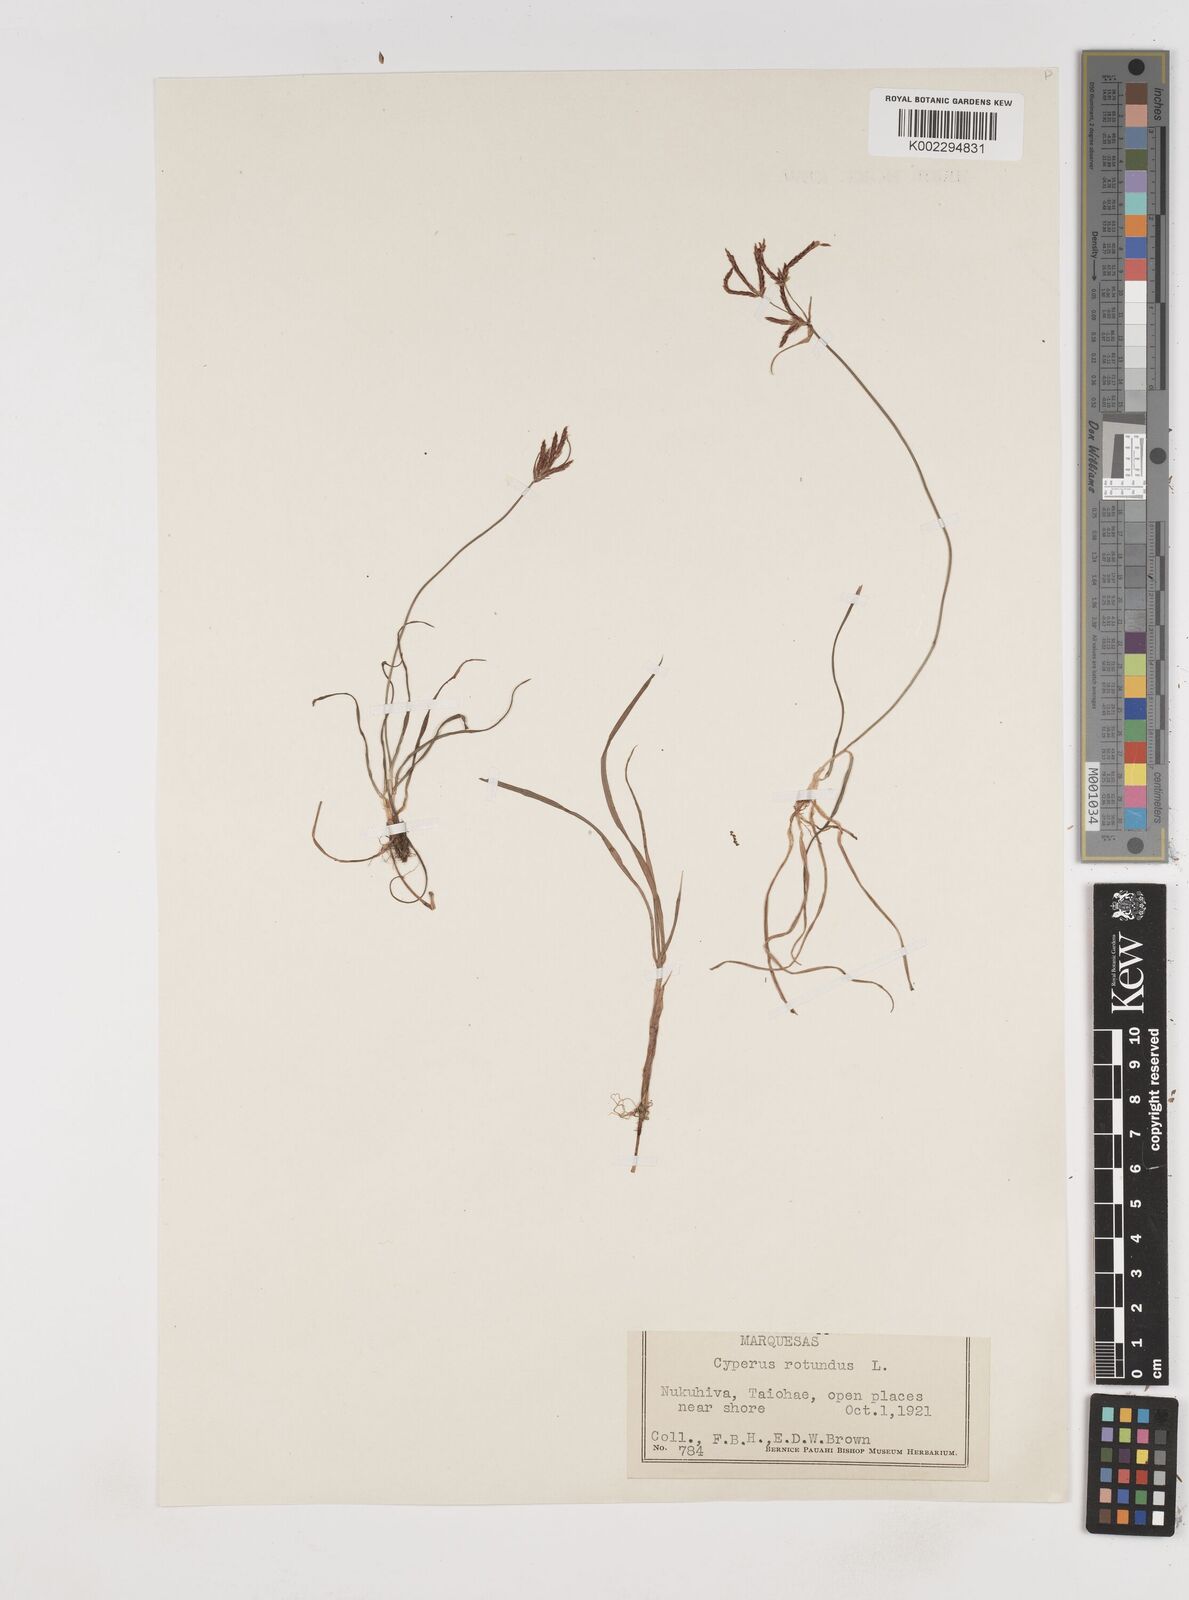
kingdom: Plantae
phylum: Tracheophyta
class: Liliopsida
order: Poales
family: Cyperaceae
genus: Cyperus
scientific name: Cyperus rotundus
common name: Nutgrass
